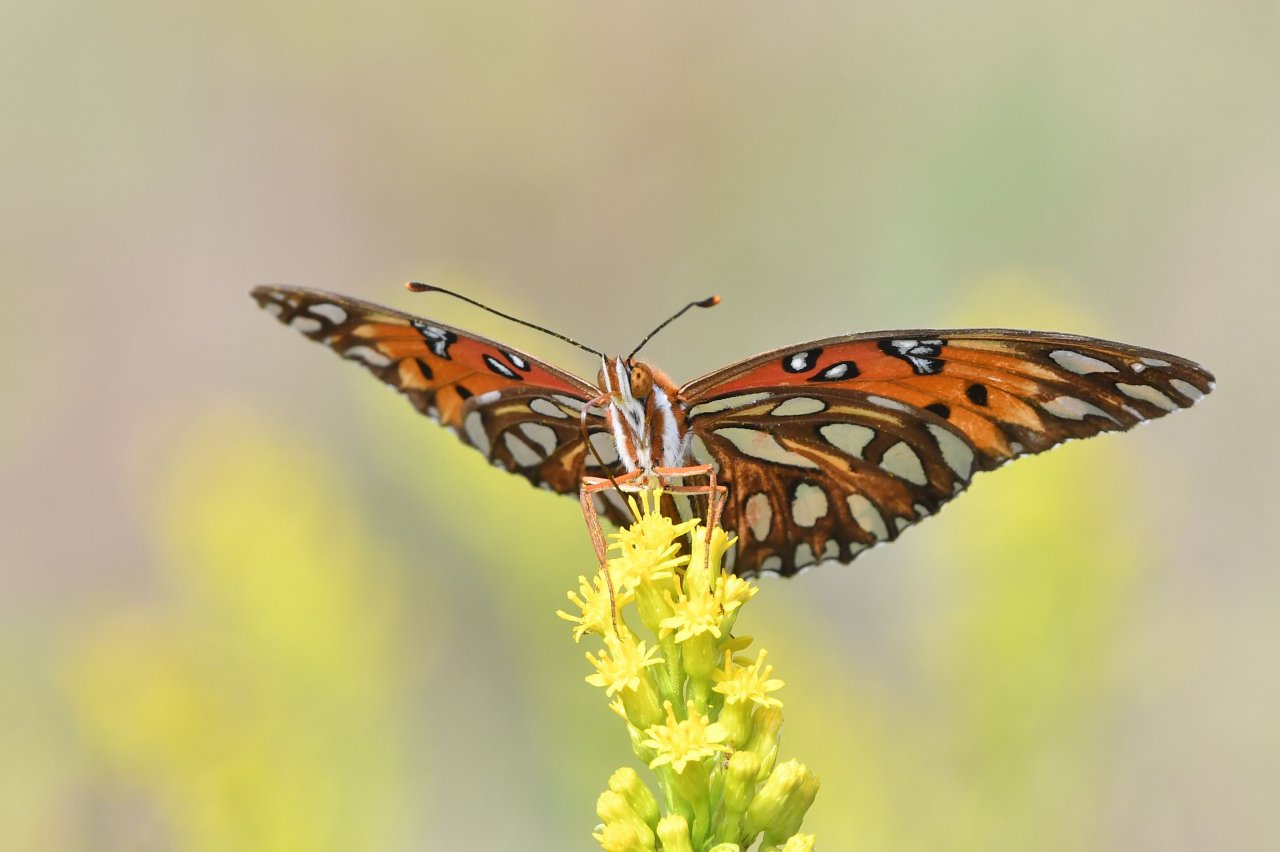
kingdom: Animalia
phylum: Arthropoda
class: Insecta
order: Lepidoptera
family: Nymphalidae
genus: Dione
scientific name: Dione vanillae
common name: Gulf Fritillary
